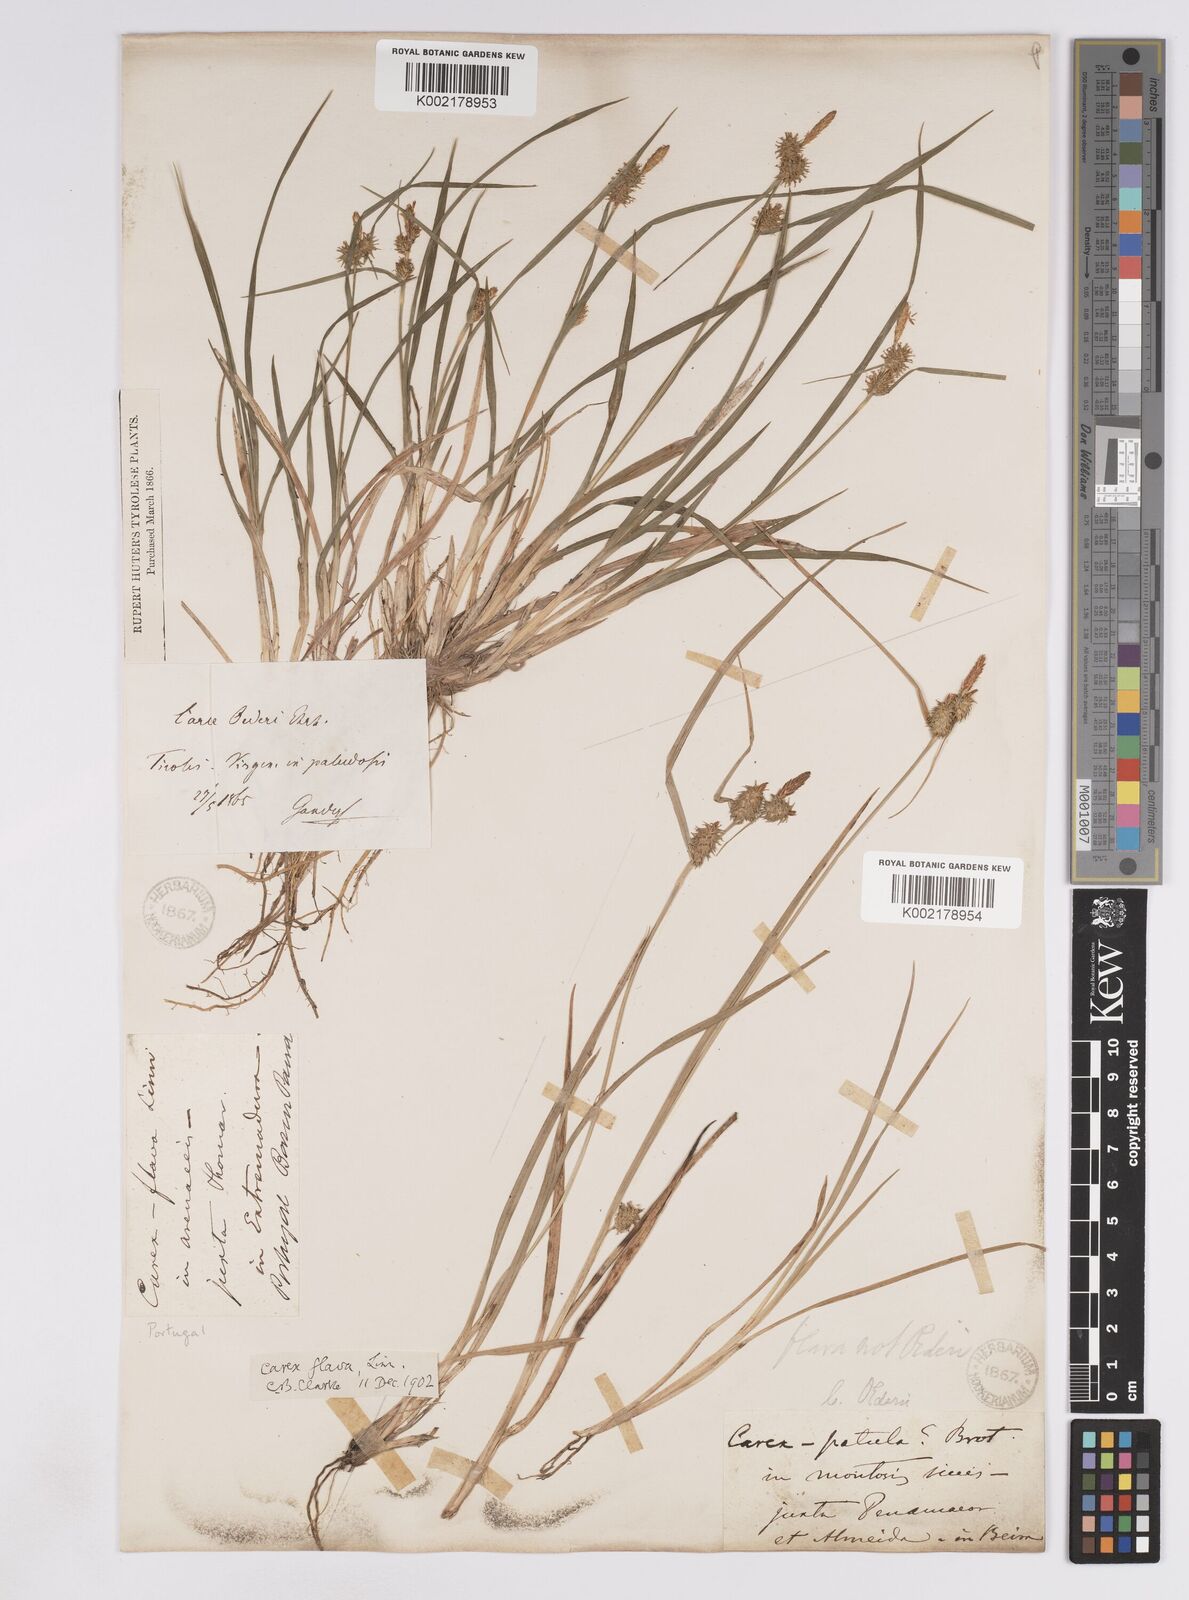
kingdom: Plantae
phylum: Tracheophyta
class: Liliopsida
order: Poales
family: Cyperaceae
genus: Carex
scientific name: Carex lepidocarpa
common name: Long-stalked yellow-sedge
